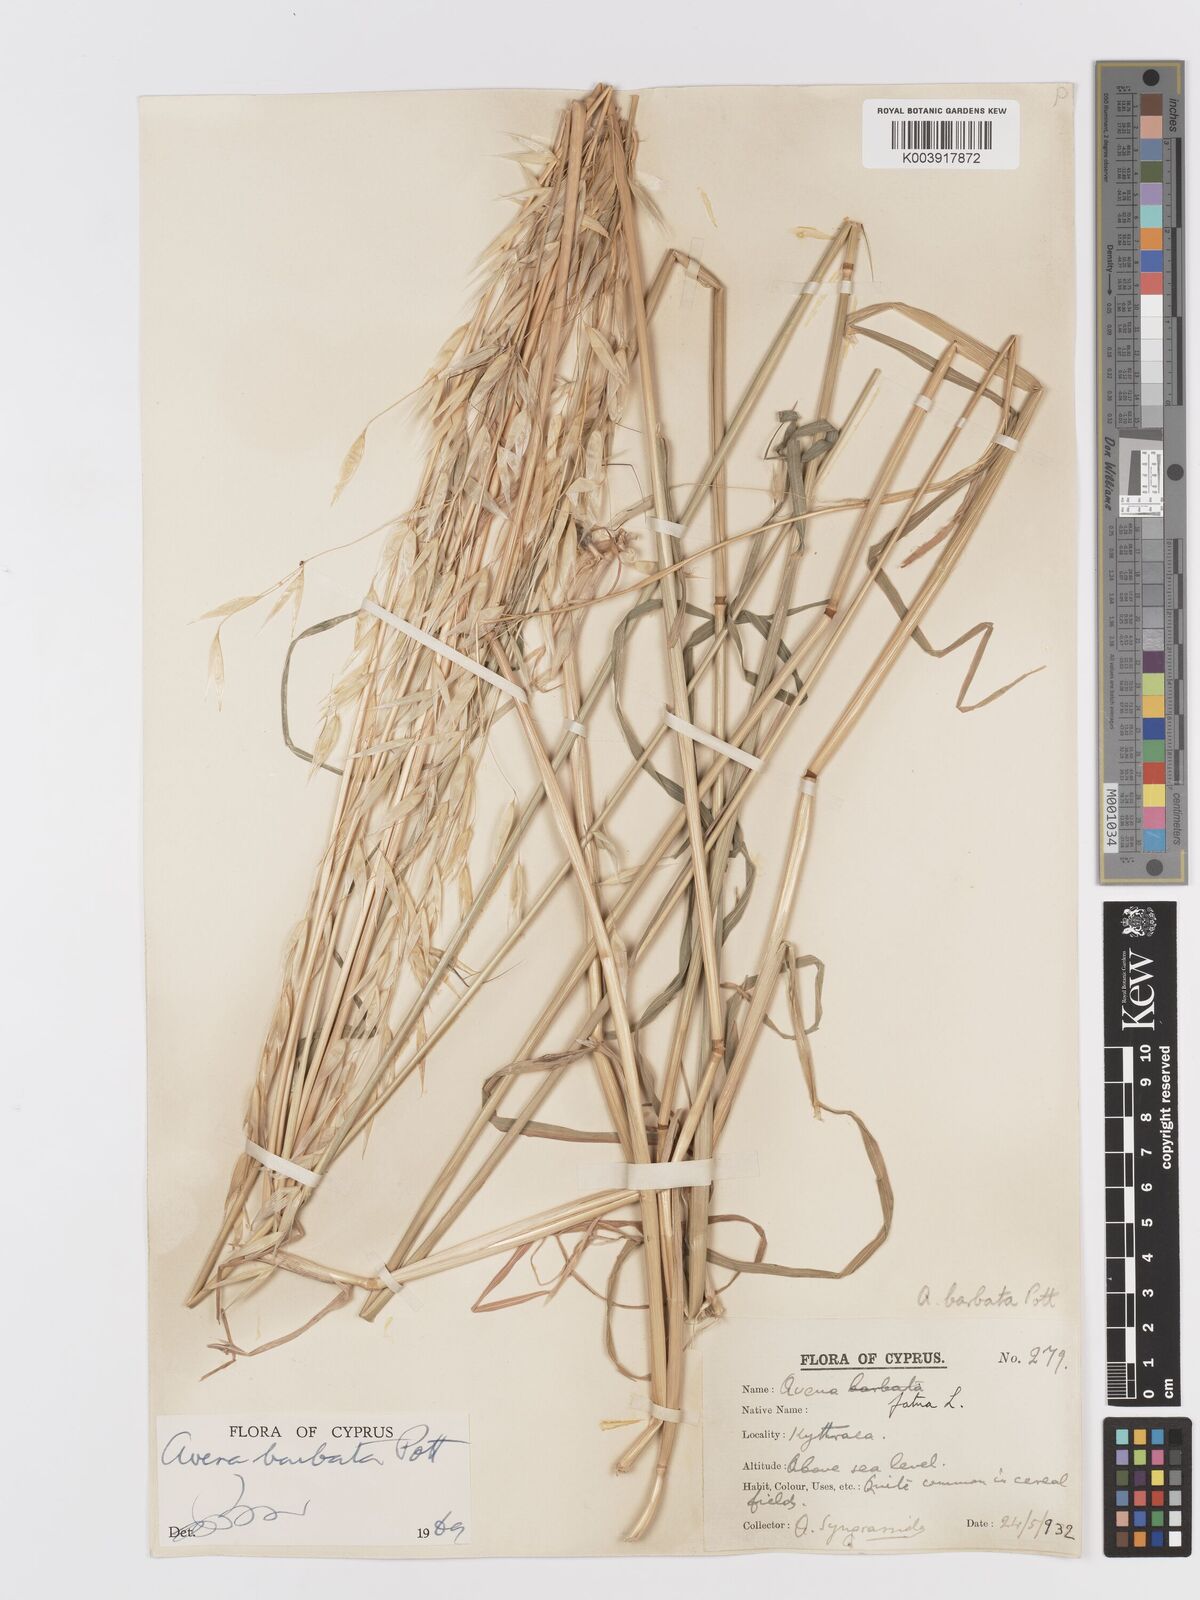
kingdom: Plantae
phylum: Tracheophyta
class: Liliopsida
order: Poales
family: Poaceae
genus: Avena
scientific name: Avena
